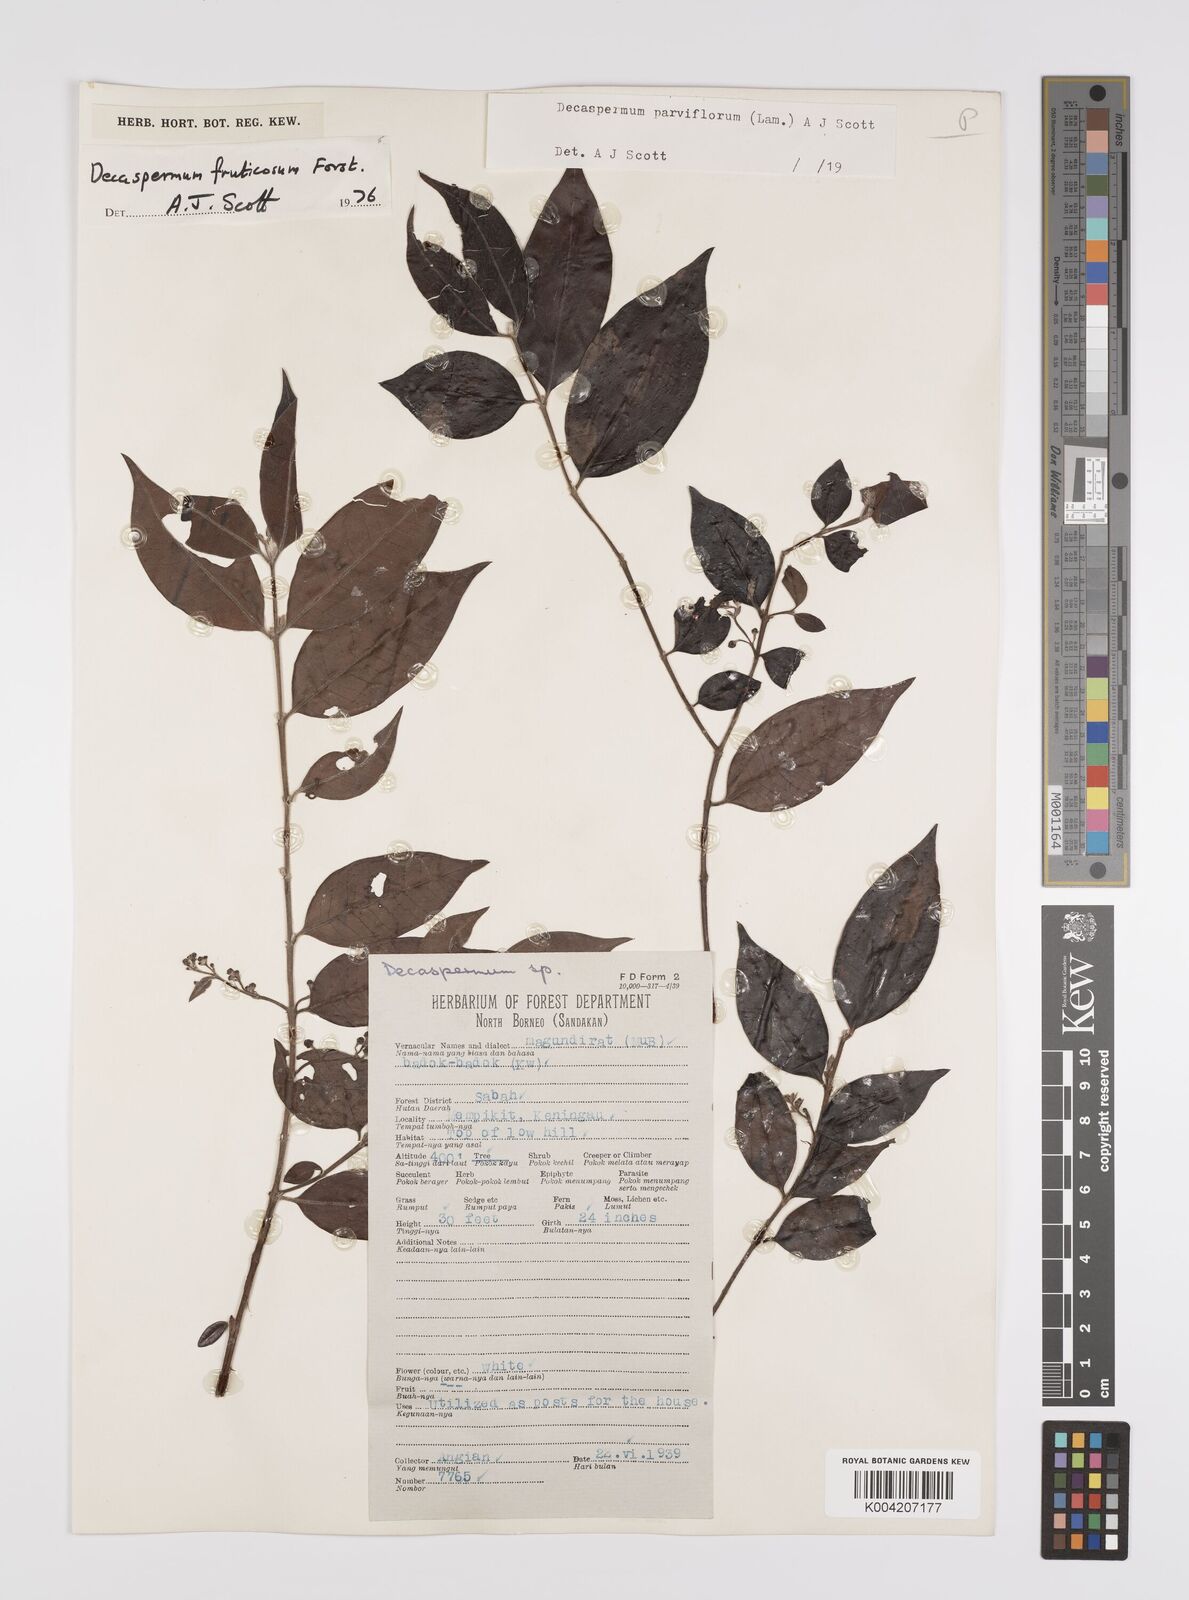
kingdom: Plantae
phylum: Tracheophyta
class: Magnoliopsida
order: Myrtales
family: Myrtaceae
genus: Decaspermum
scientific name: Decaspermum fruticosum
